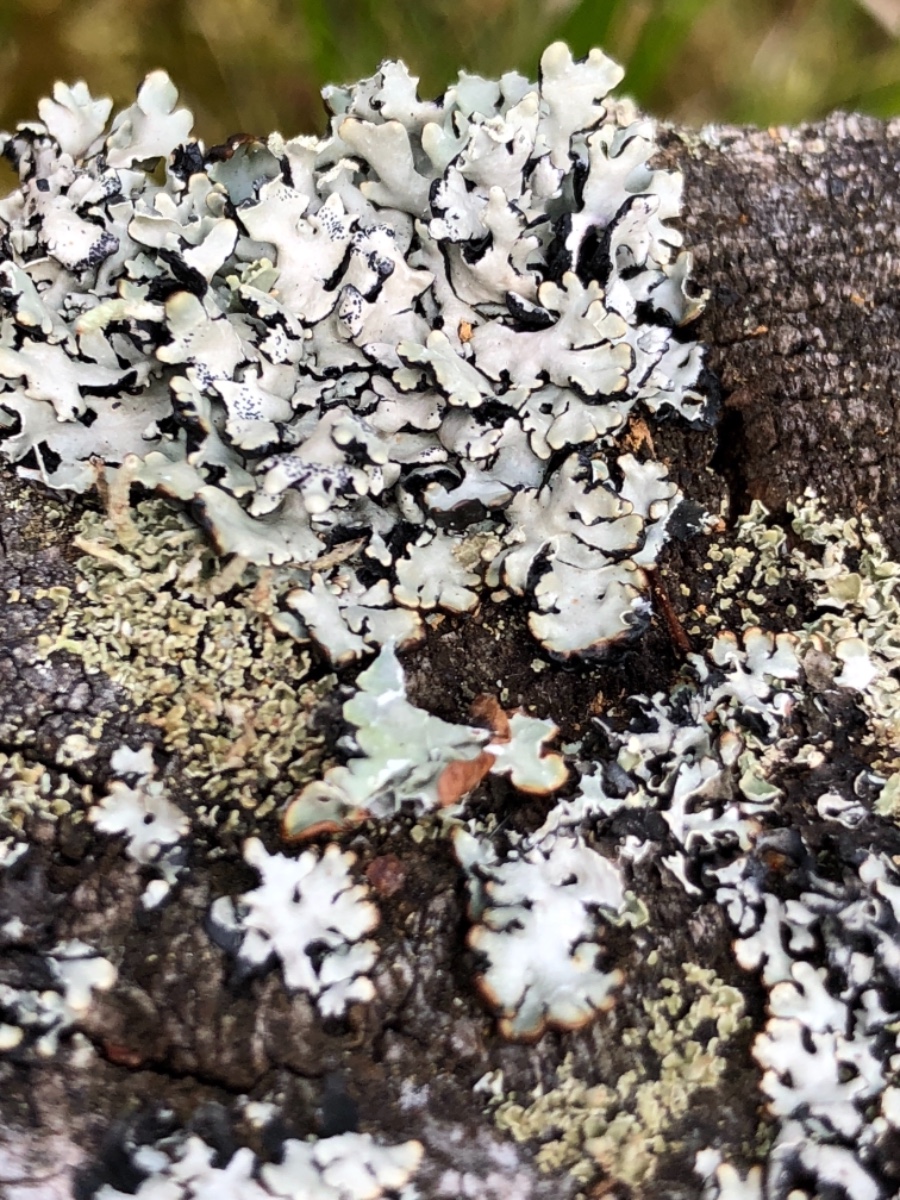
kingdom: Fungi
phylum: Ascomycota
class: Lecanoromycetes
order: Lecanorales
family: Parmeliaceae
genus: Hypogymnia
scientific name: Hypogymnia physodes
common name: almindelig kvistlav
